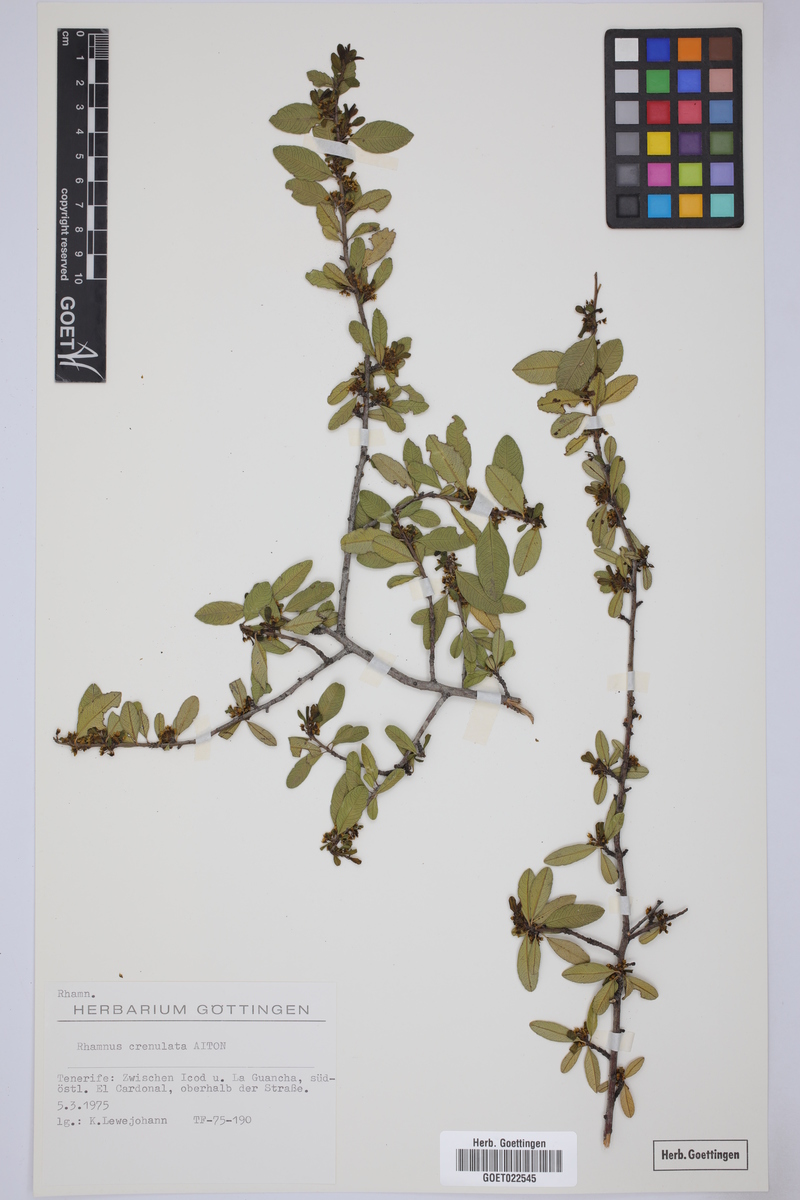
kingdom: Plantae
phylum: Tracheophyta
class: Magnoliopsida
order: Rosales
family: Rhamnaceae
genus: Rhamnus
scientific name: Rhamnus crenulata
